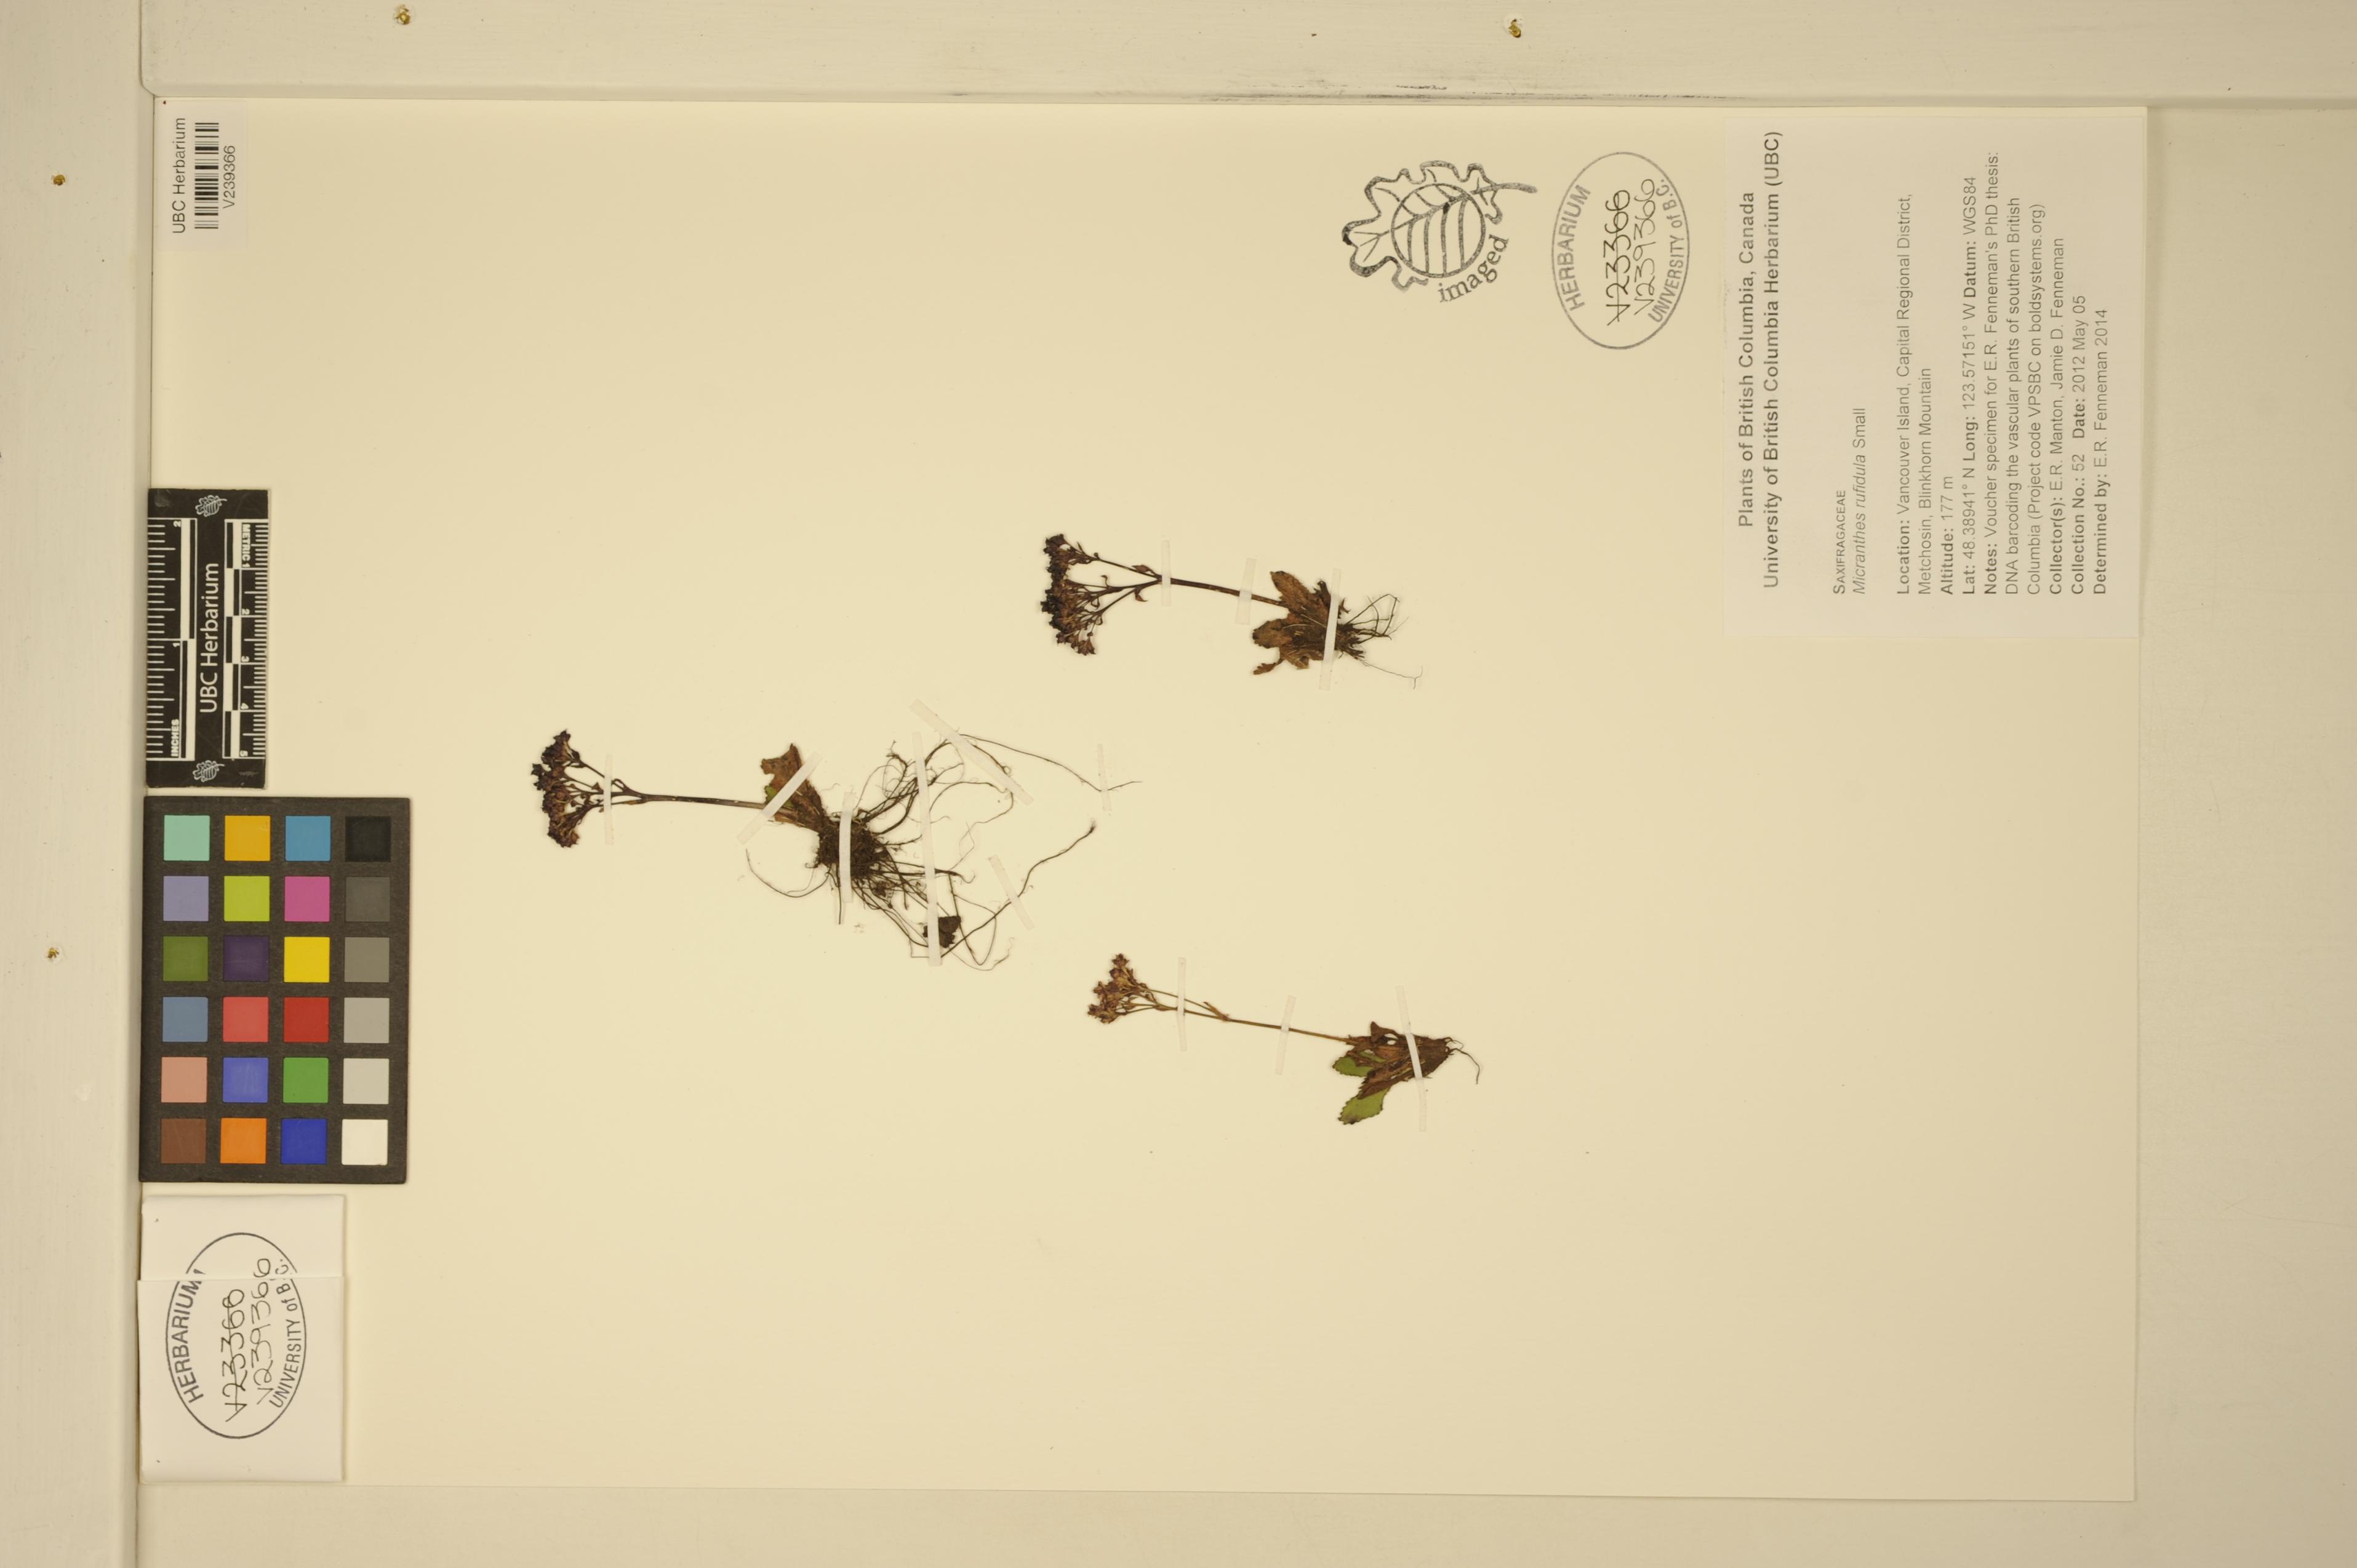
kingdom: Plantae
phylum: Tracheophyta
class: Magnoliopsida
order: Saxifragales
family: Saxifragaceae
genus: Micranthes
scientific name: Micranthes rufidula
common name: Rustyhair saxifrage
